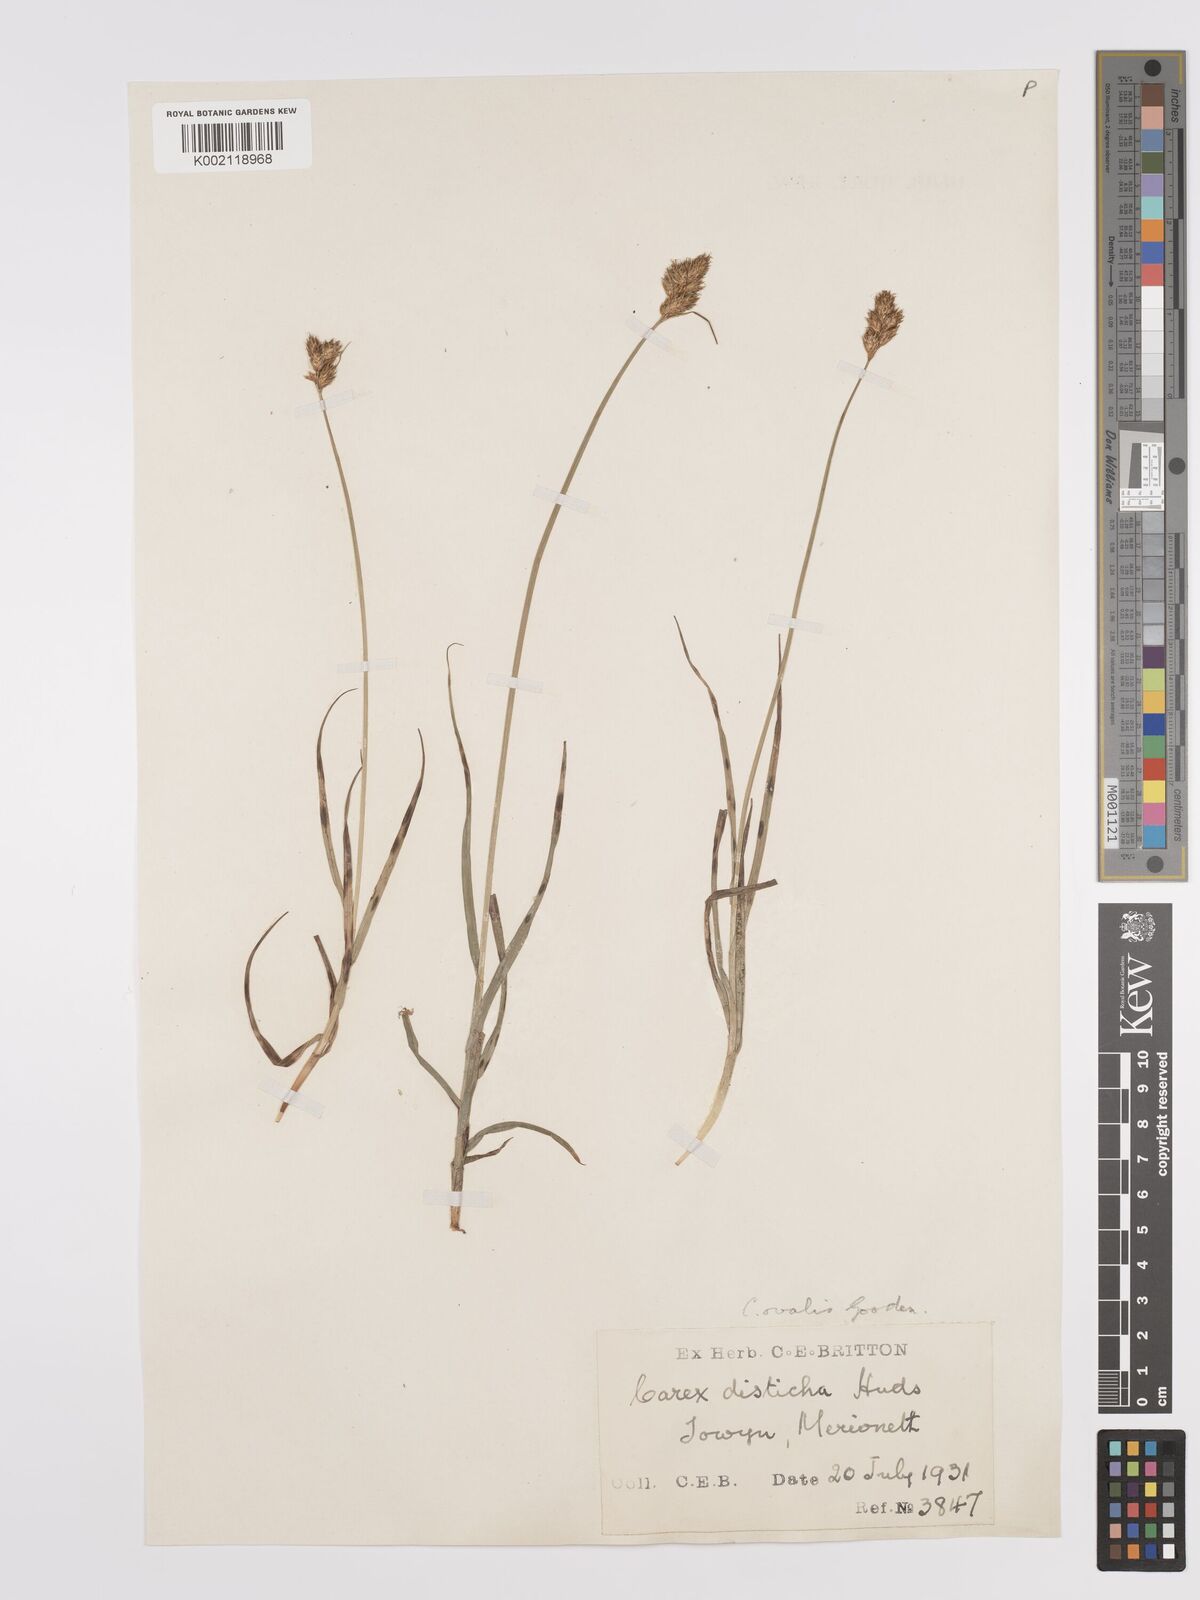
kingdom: Plantae
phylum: Tracheophyta
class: Liliopsida
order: Poales
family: Cyperaceae
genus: Carex
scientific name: Carex leporina
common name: Oval sedge
